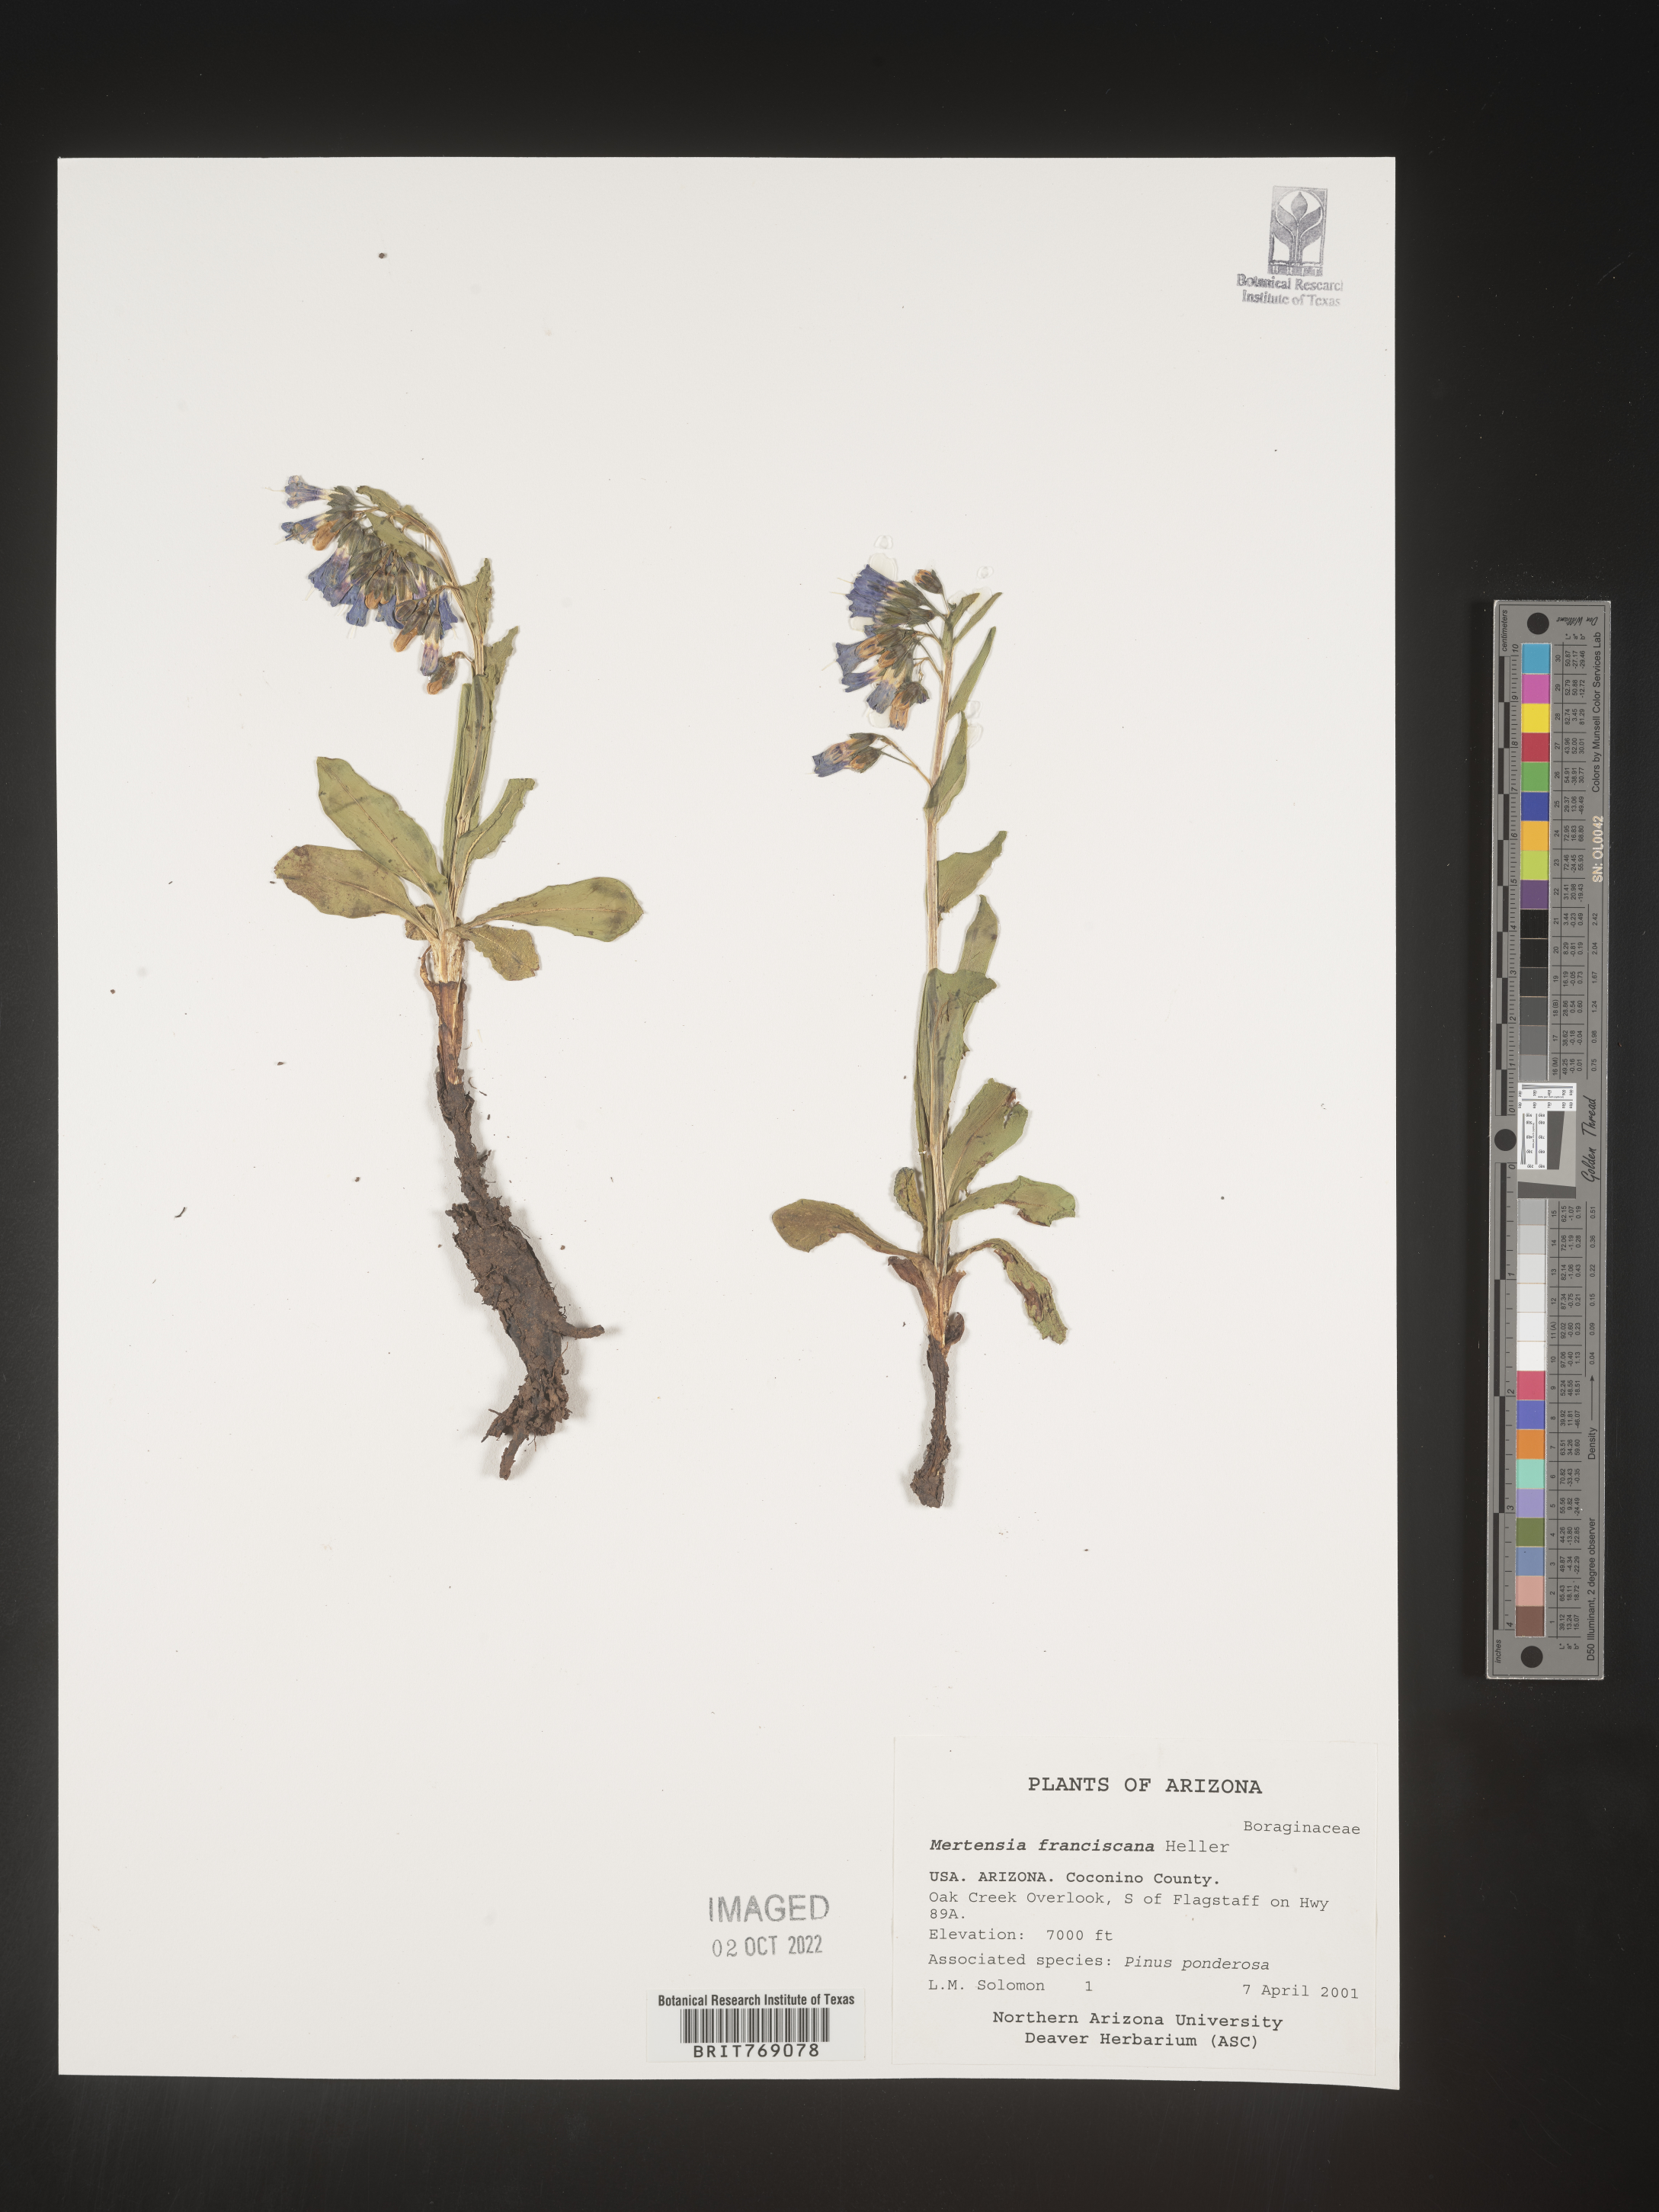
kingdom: Plantae
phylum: Tracheophyta
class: Magnoliopsida
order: Boraginales
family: Boraginaceae
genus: Mertensia
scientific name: Mertensia
